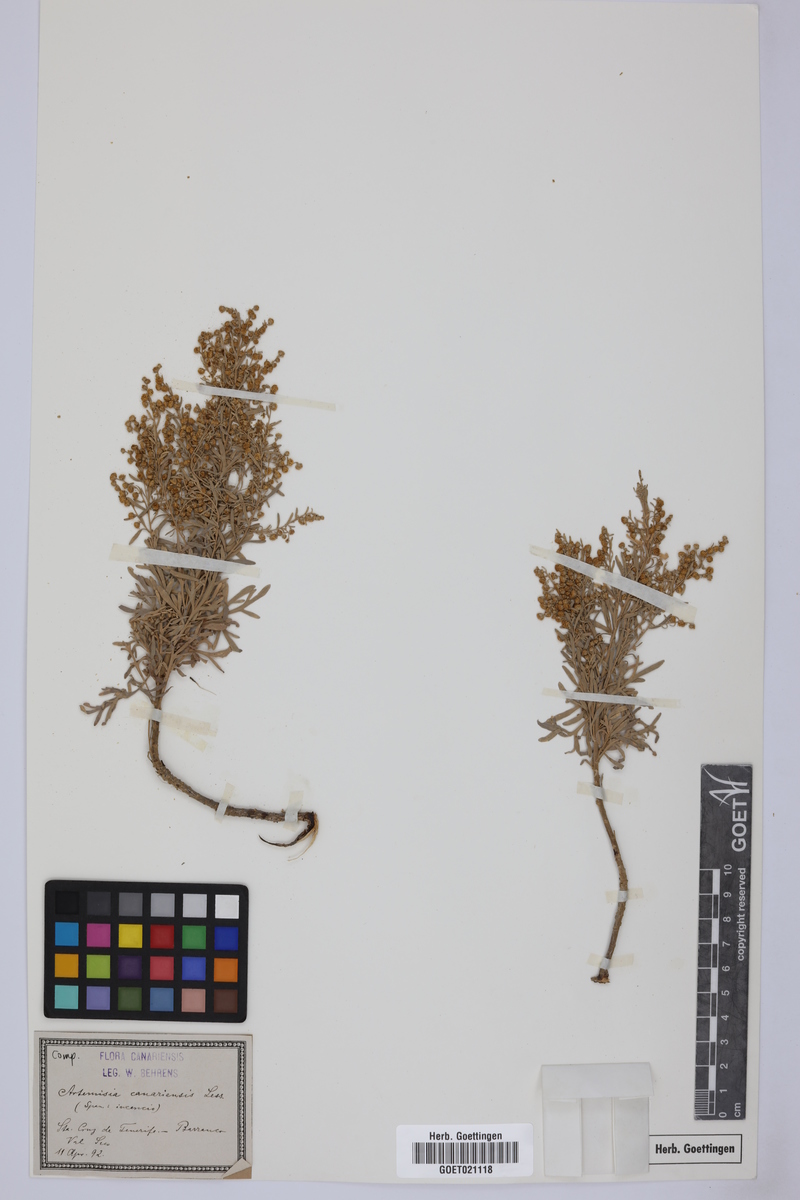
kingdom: Plantae
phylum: Tracheophyta
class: Magnoliopsida
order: Asterales
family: Asteraceae
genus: Artemisia
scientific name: Artemisia thuscula
